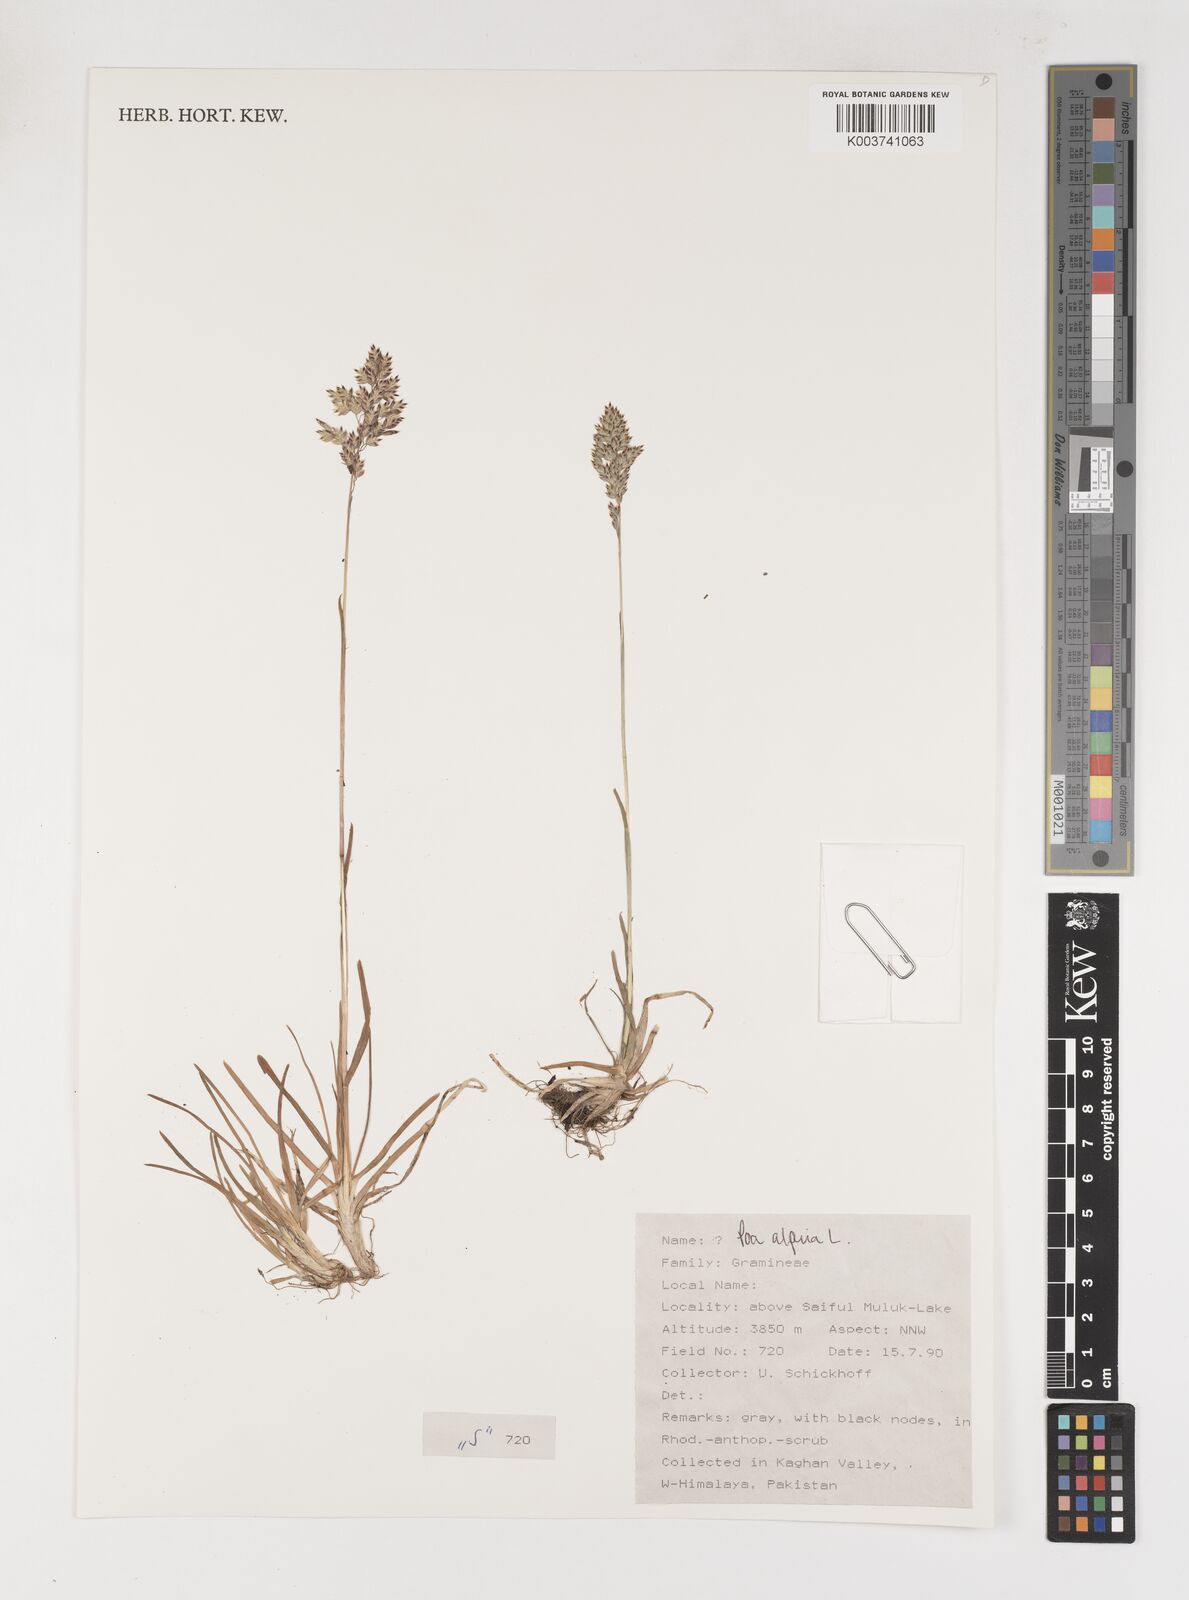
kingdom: Plantae
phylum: Tracheophyta
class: Liliopsida
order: Poales
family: Poaceae
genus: Poa
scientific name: Poa alpina
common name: Alpine bluegrass
